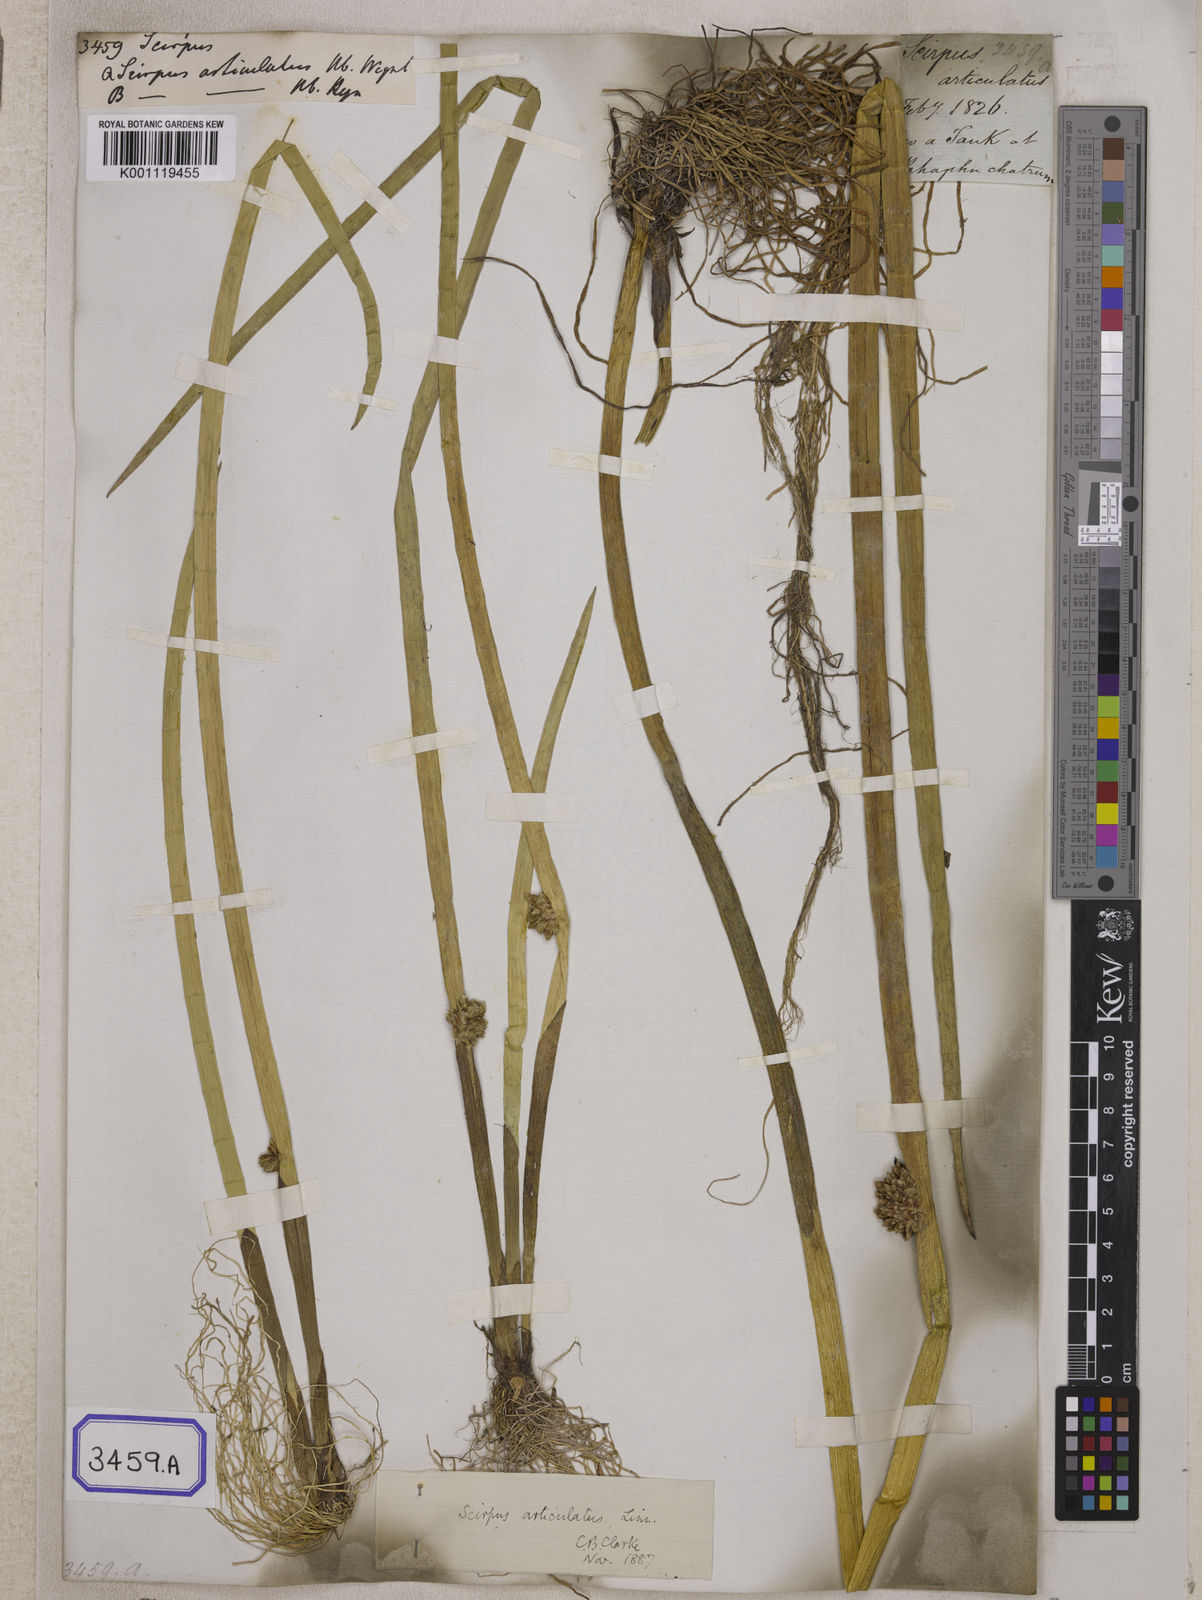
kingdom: Plantae
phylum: Tracheophyta
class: Liliopsida
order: Poales
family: Cyperaceae
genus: Scirpus
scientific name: Scirpus
